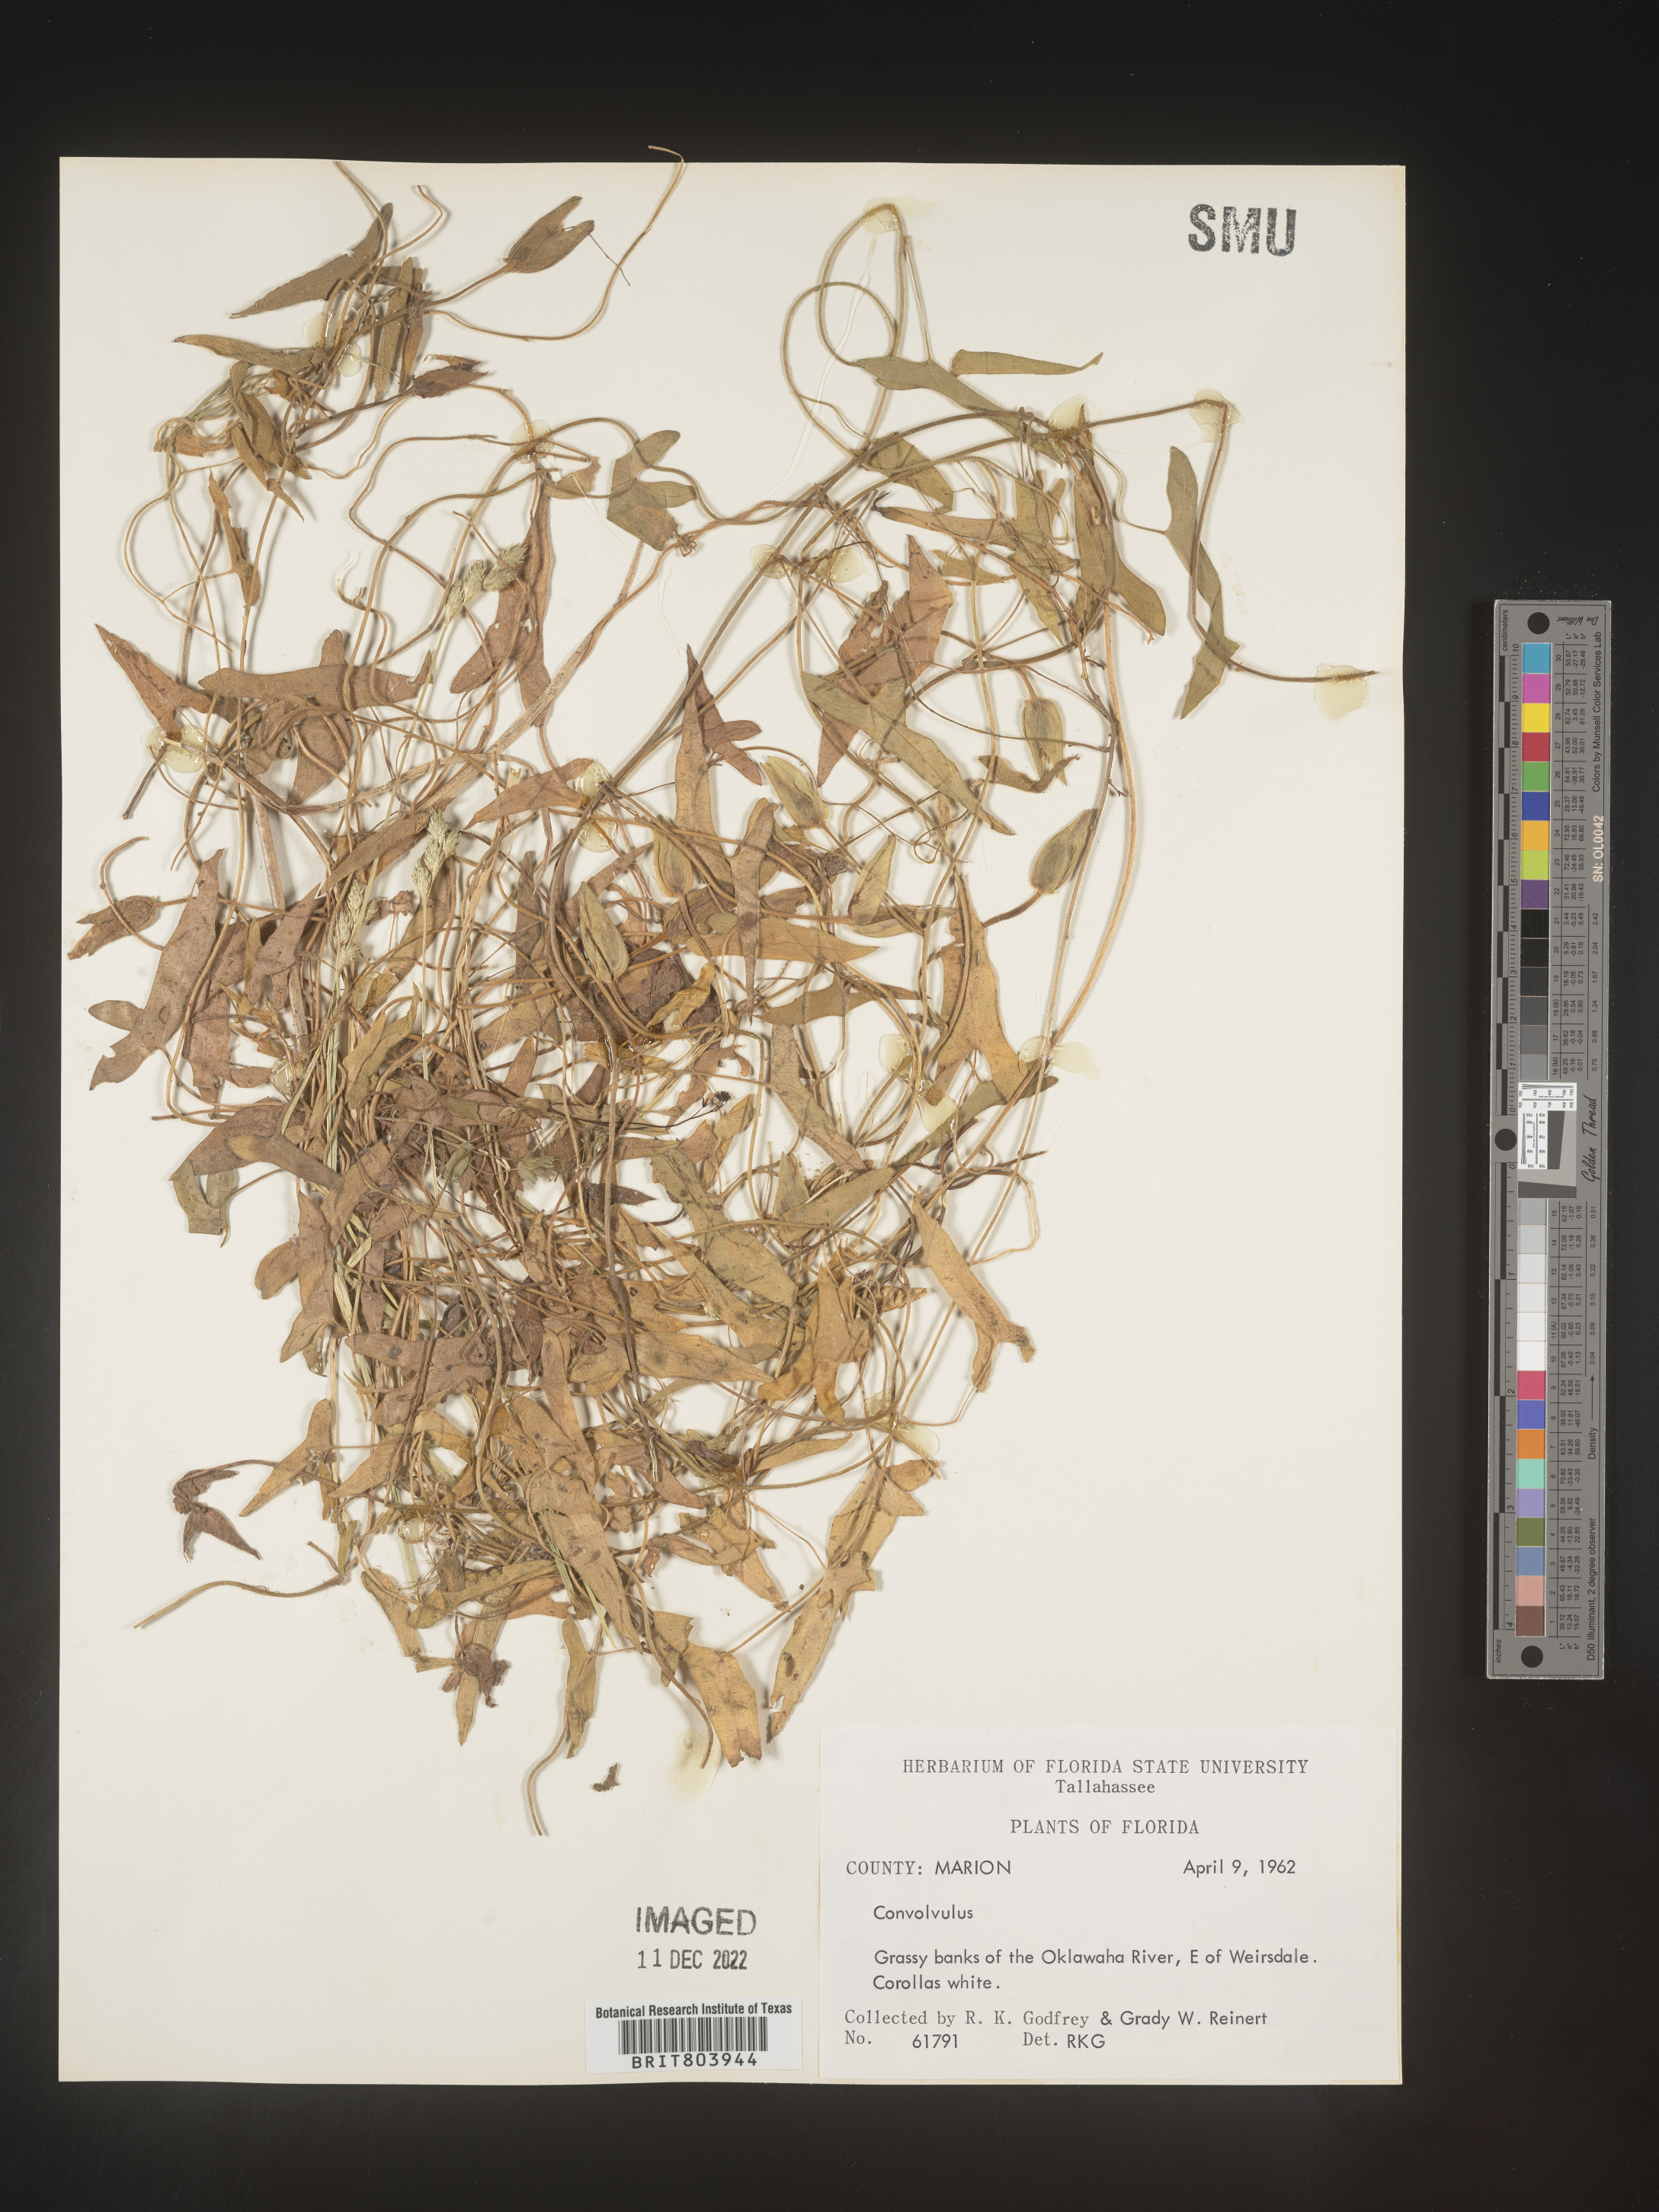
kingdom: Plantae
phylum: Tracheophyta
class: Magnoliopsida
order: Solanales
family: Convolvulaceae
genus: Calystegia
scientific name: Calystegia sepium
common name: Hedge bindweed
